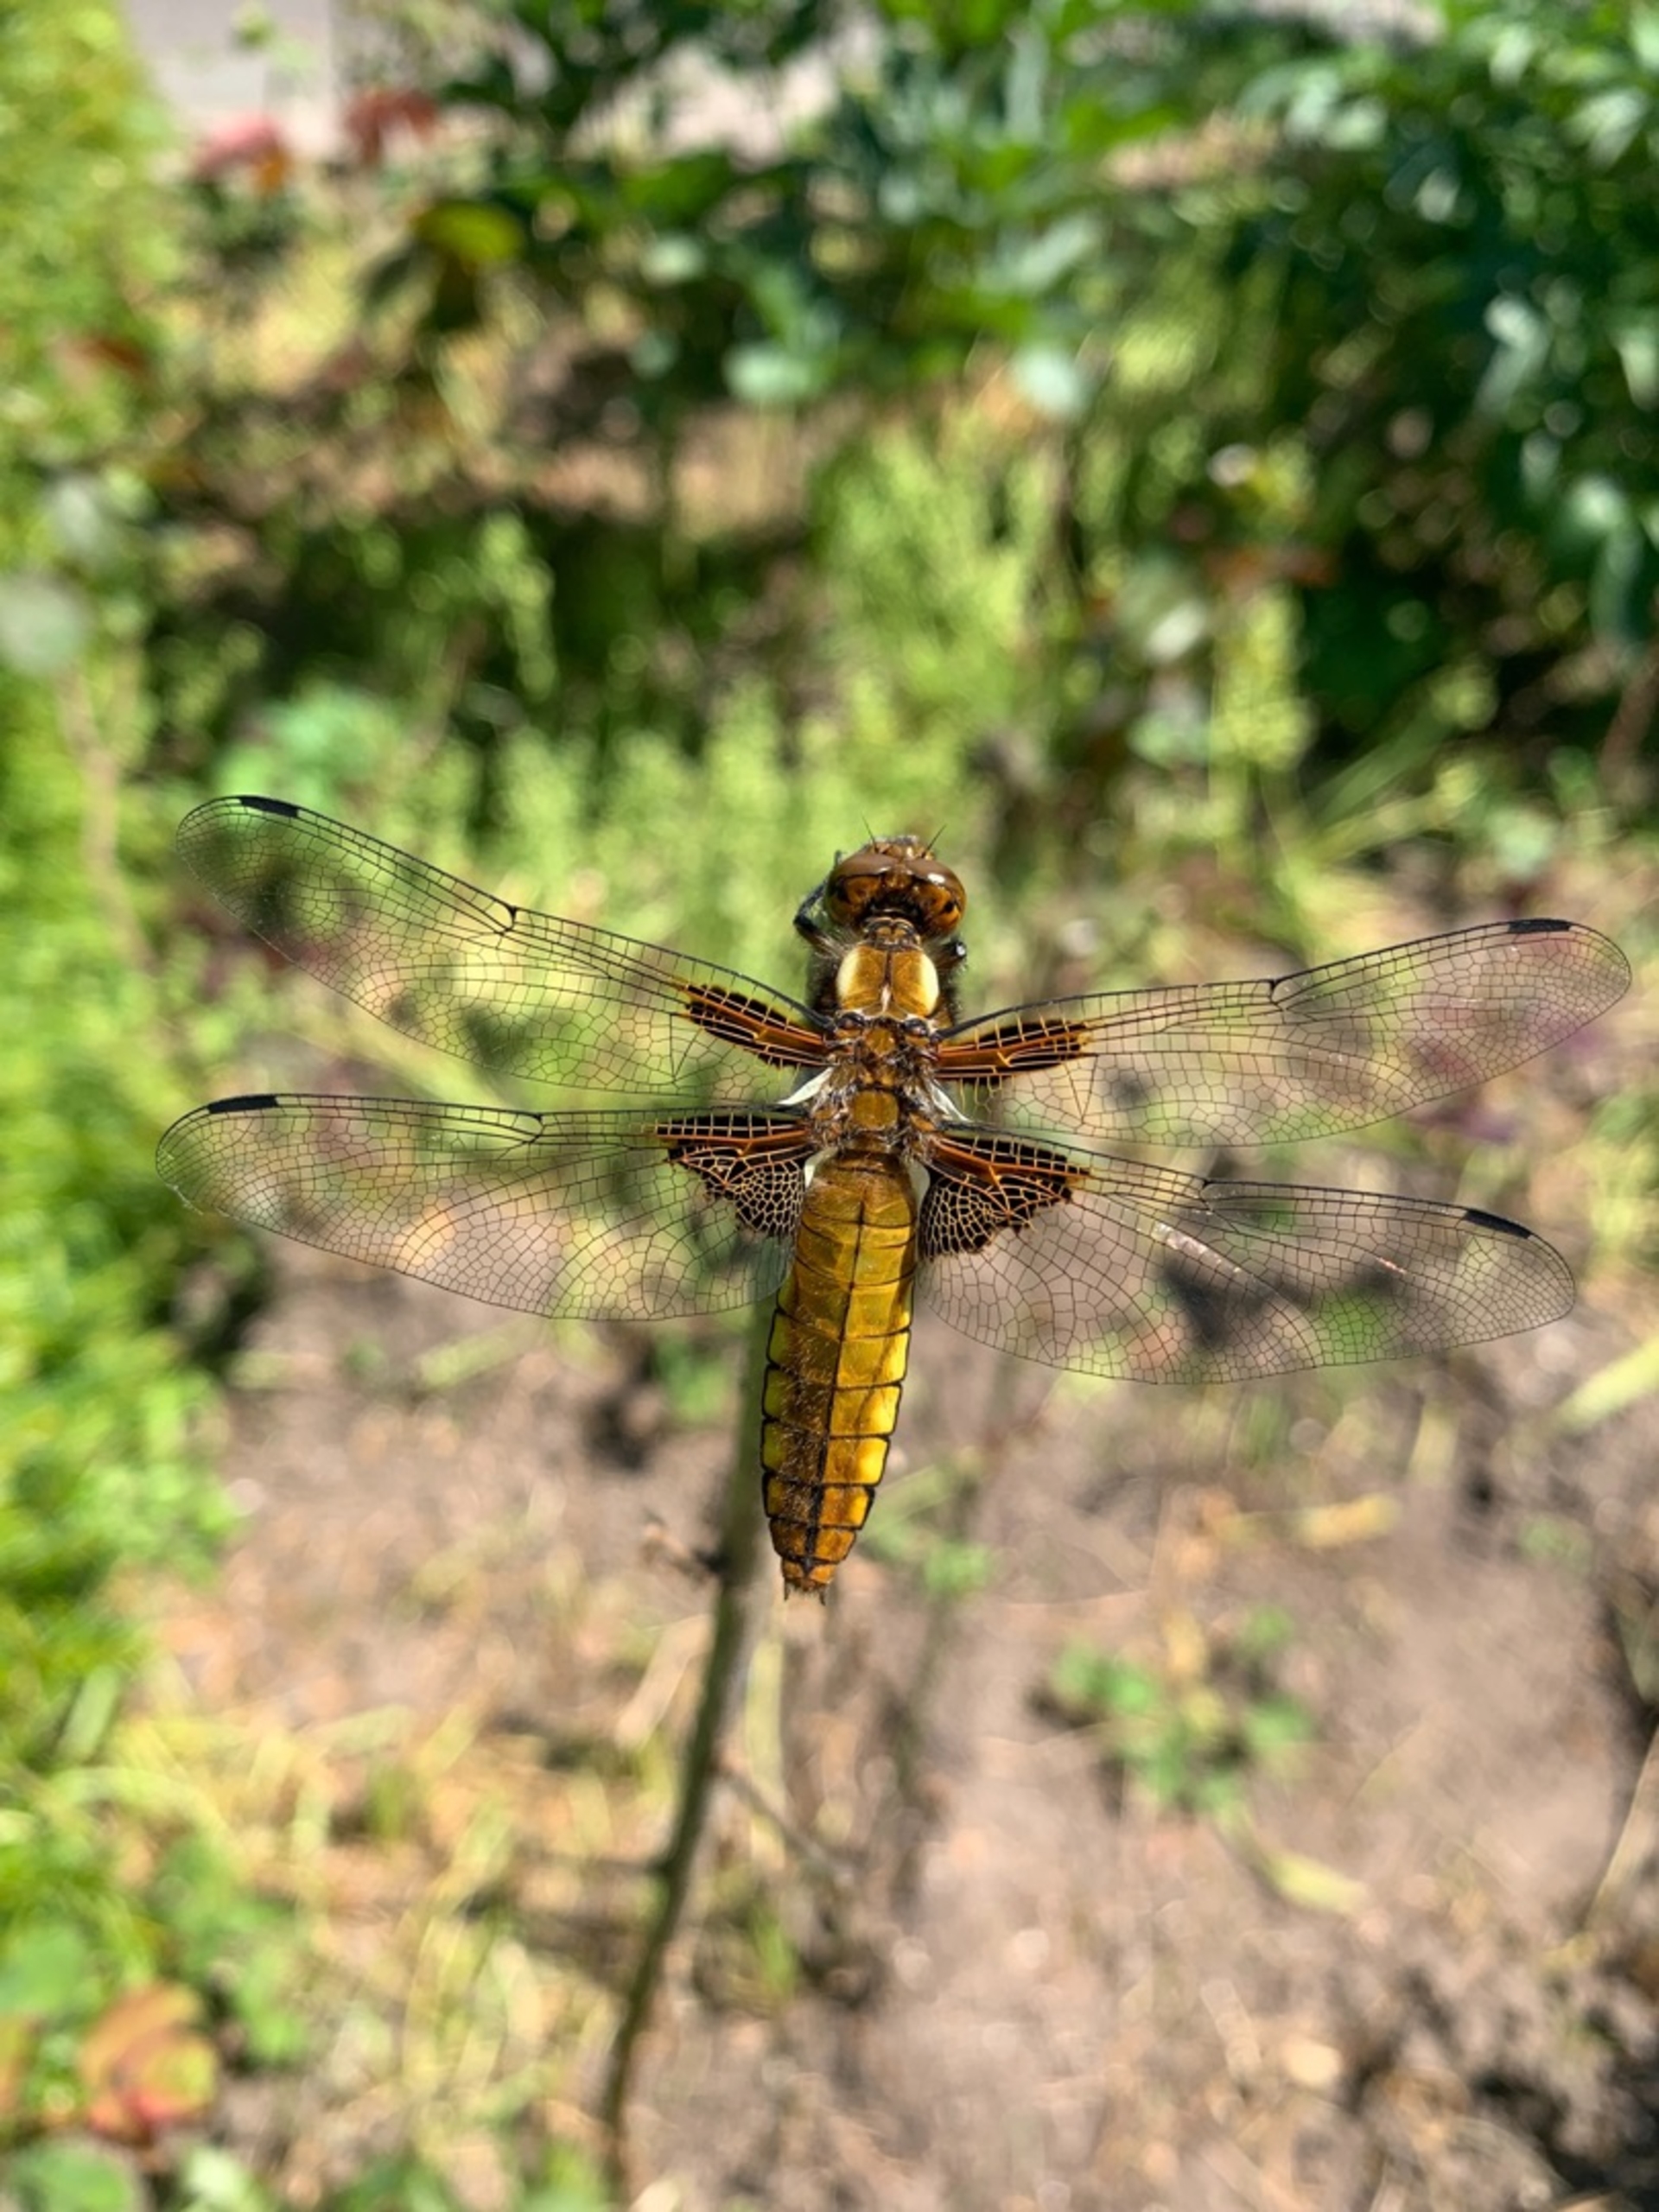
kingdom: Animalia
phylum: Arthropoda
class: Insecta
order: Odonata
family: Libellulidae
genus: Libellula
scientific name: Libellula depressa
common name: Blå libel
